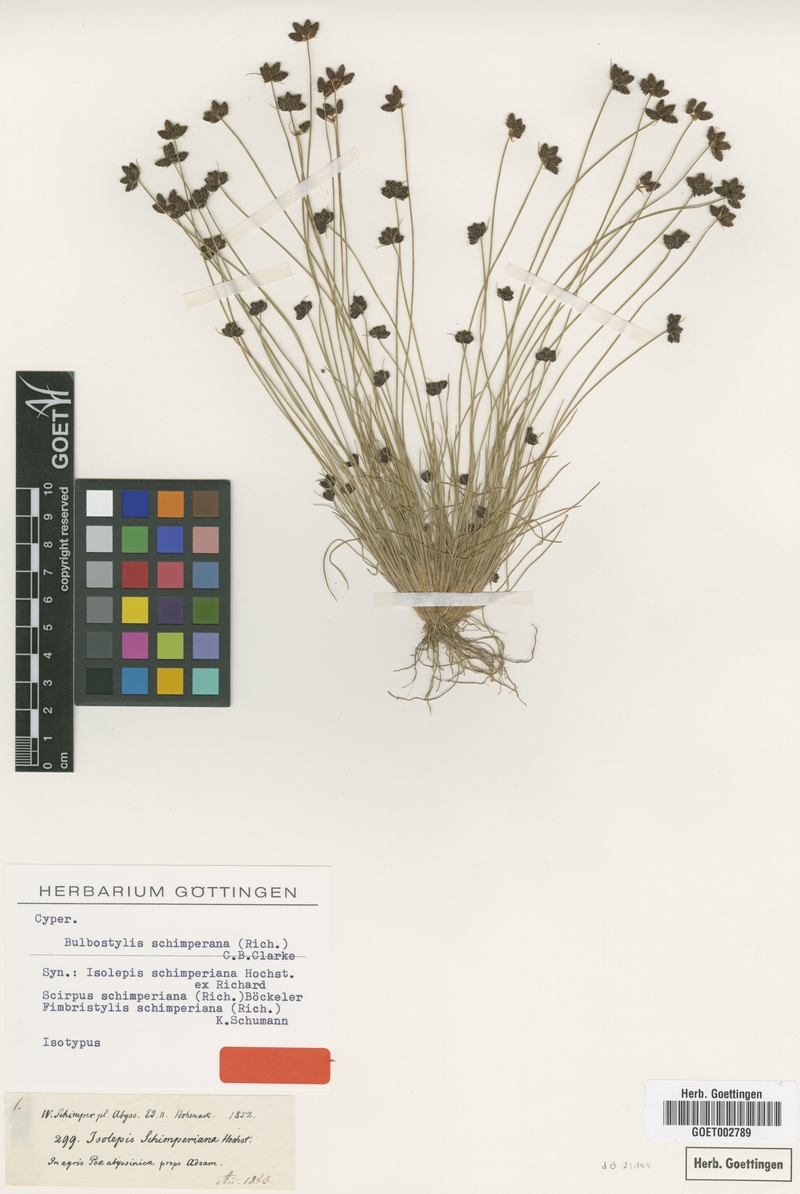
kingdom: Plantae
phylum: Tracheophyta
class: Liliopsida
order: Poales
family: Cyperaceae
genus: Bulbostylis
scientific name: Bulbostylis schimperiana
